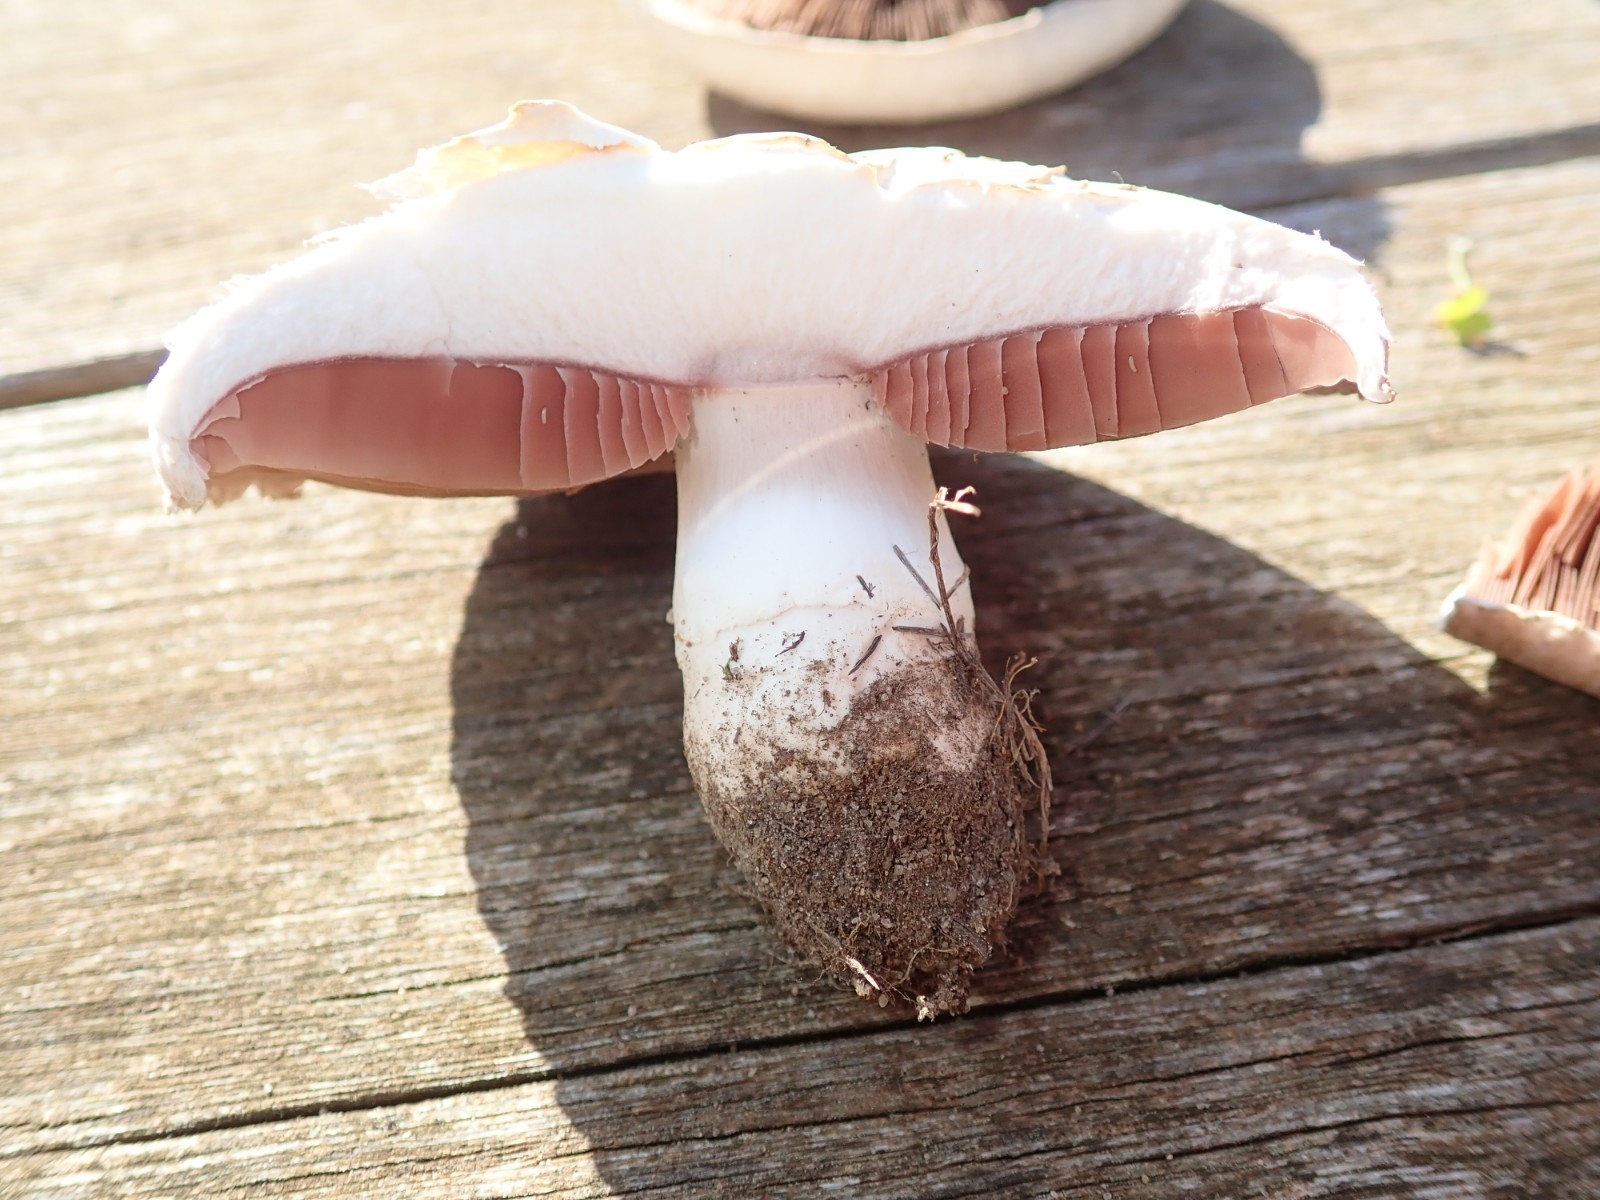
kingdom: Fungi
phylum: Basidiomycota
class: Agaricomycetes
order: Agaricales
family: Agaricaceae
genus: Agaricus
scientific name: Agaricus campestris
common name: mark-champignon
